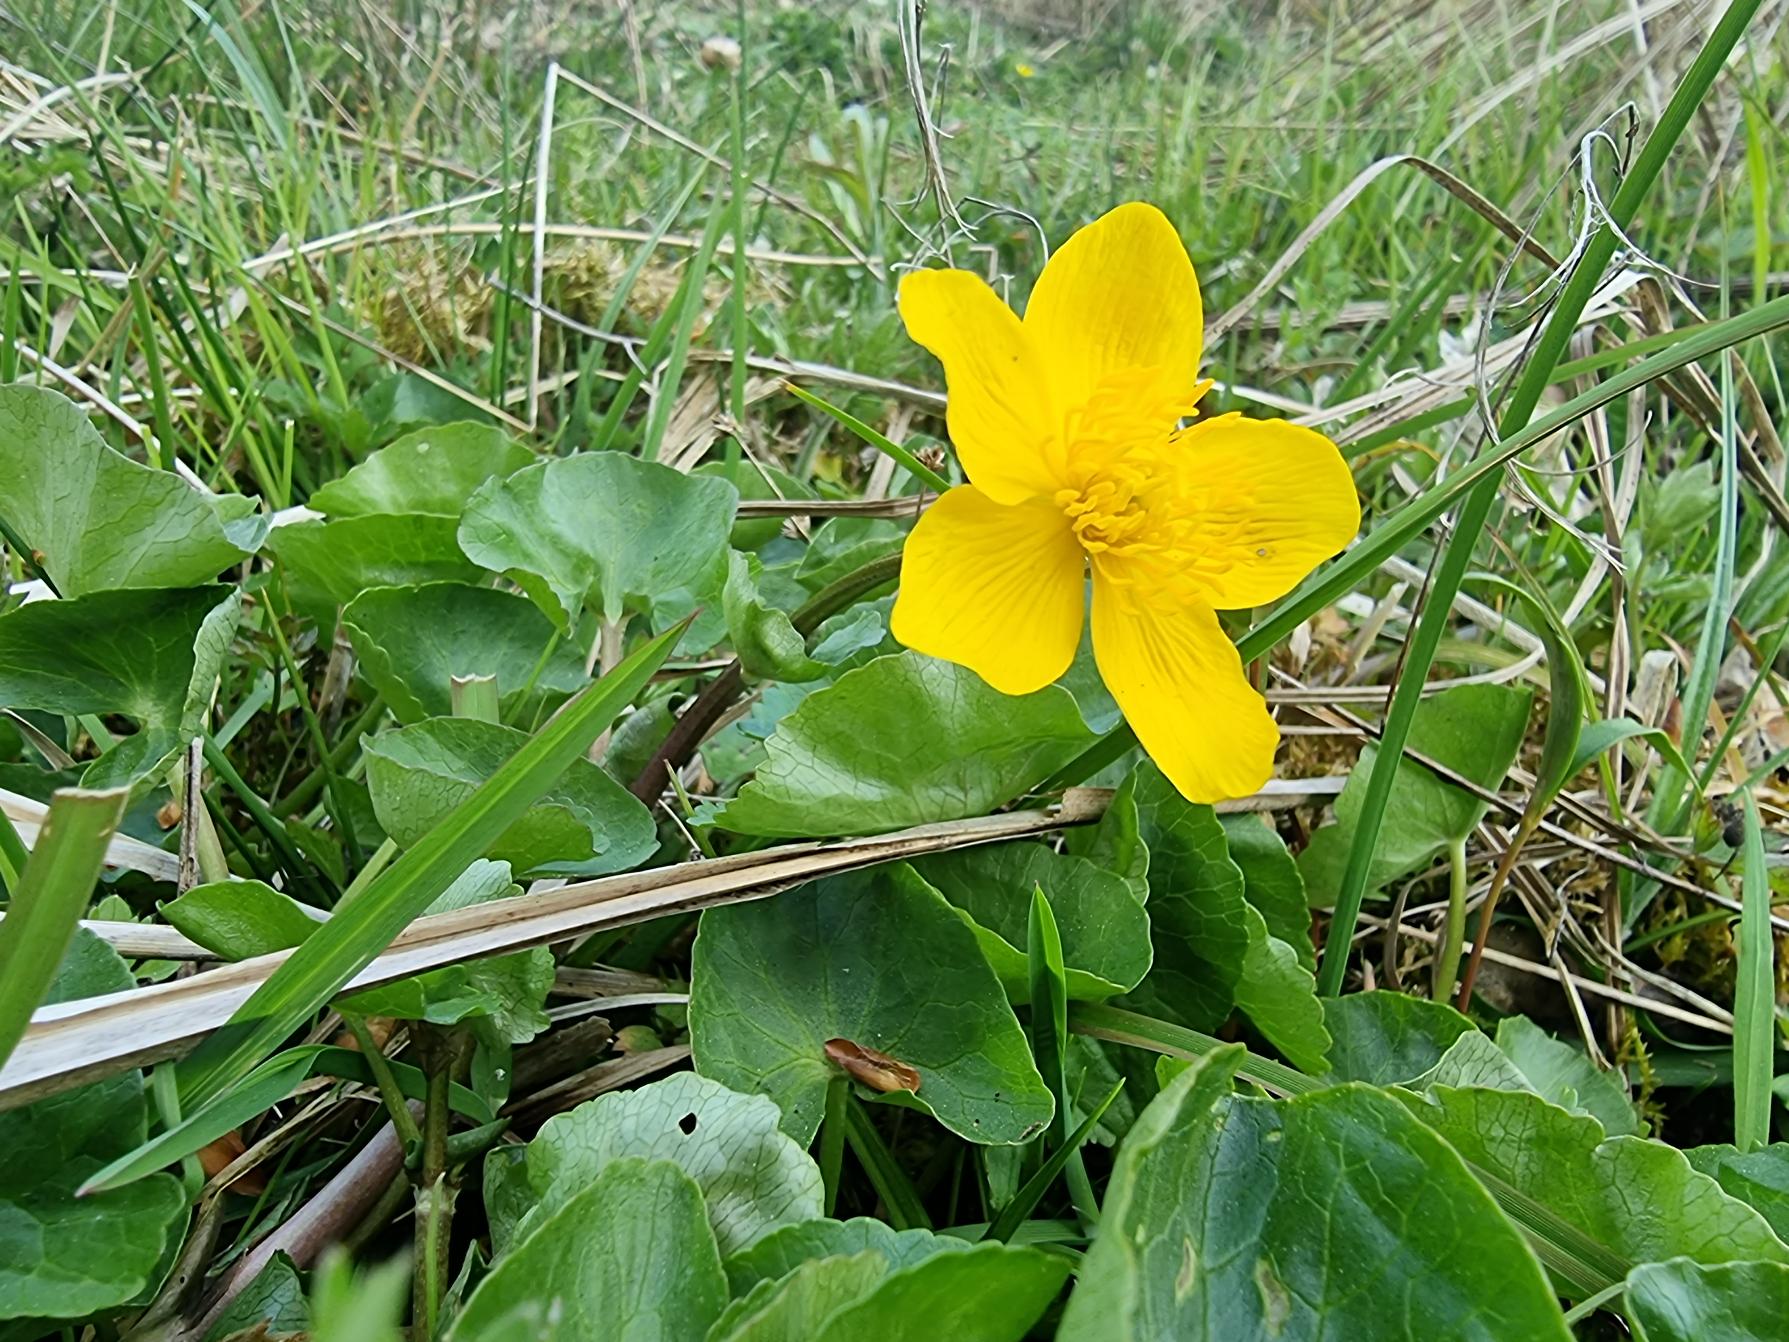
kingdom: Plantae
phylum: Tracheophyta
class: Magnoliopsida
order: Ranunculales
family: Ranunculaceae
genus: Caltha
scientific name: Caltha palustris
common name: Eng-kabbeleje
